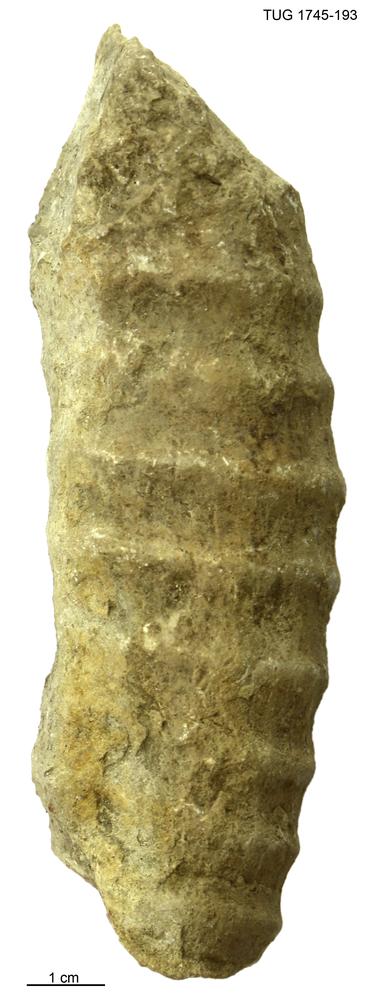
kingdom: Animalia
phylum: Mollusca
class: Cephalopoda
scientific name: Cephalopoda
